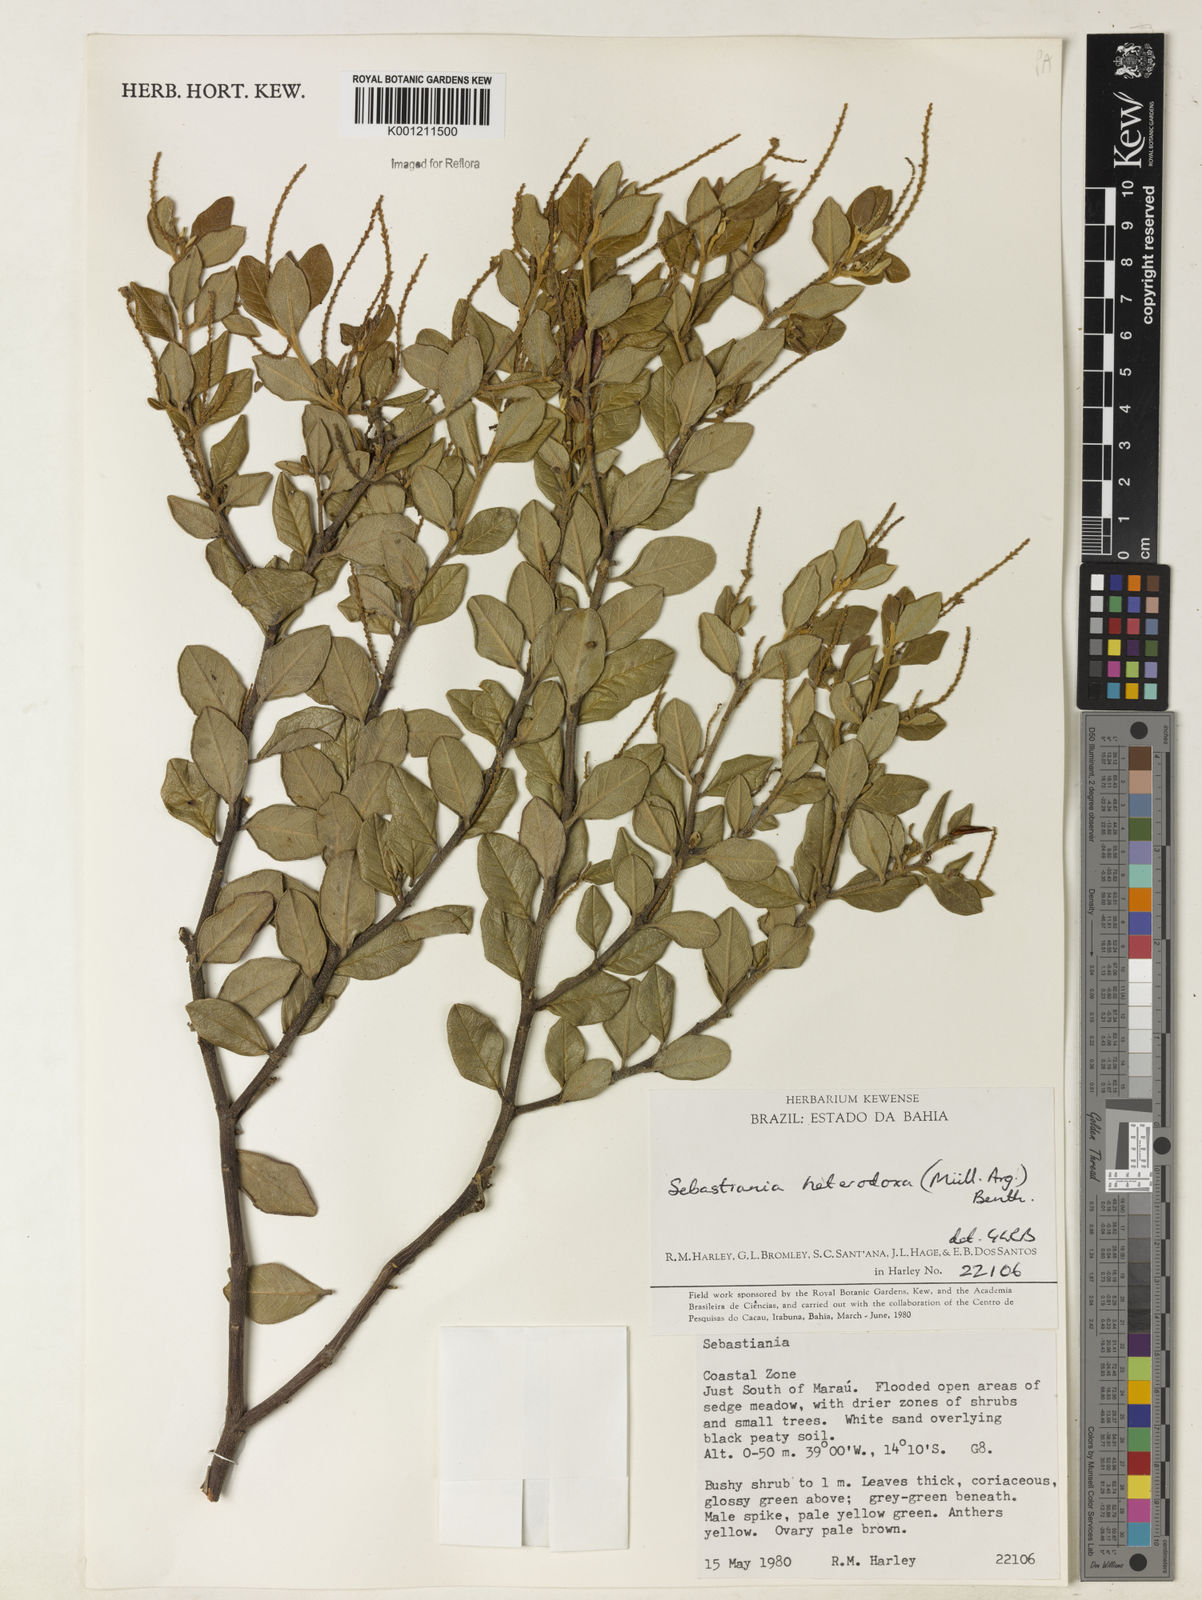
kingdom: Plantae
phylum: Tracheophyta
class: Magnoliopsida
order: Malpighiales
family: Euphorbiaceae
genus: Microstachys
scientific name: Microstachys
